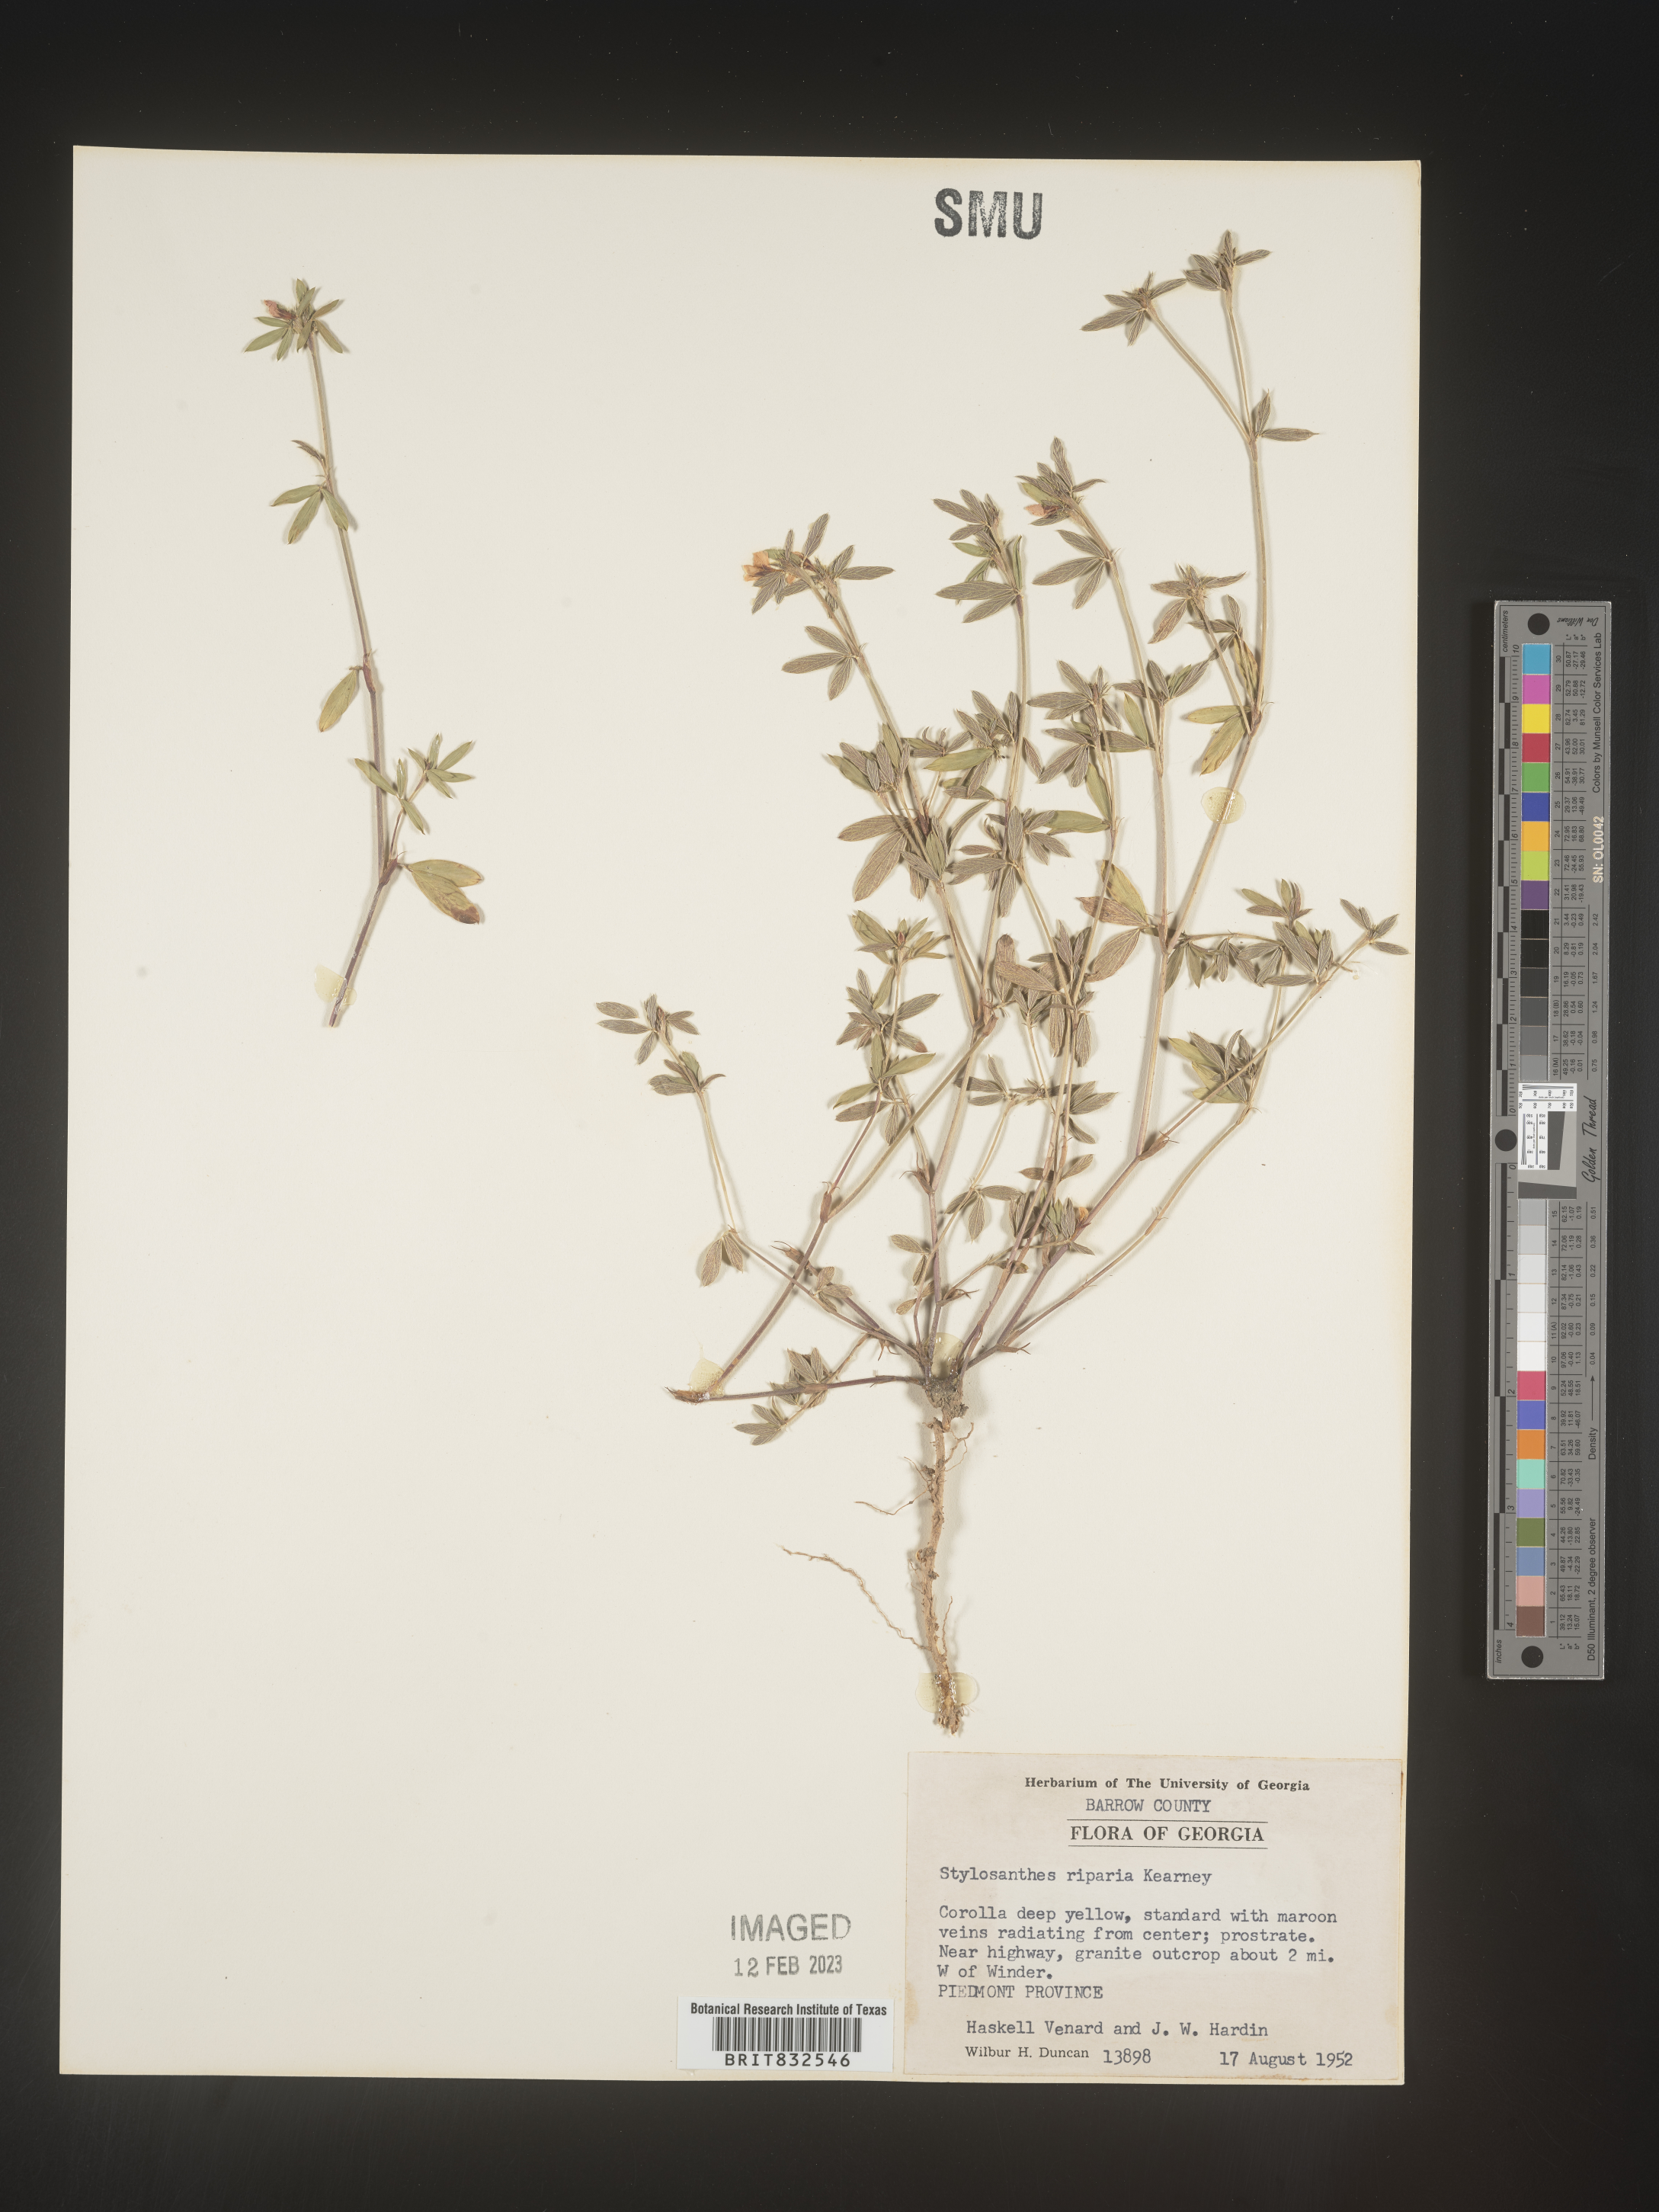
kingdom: Plantae
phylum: Tracheophyta
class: Magnoliopsida
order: Fabales
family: Fabaceae
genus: Stylosanthes
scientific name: Stylosanthes
